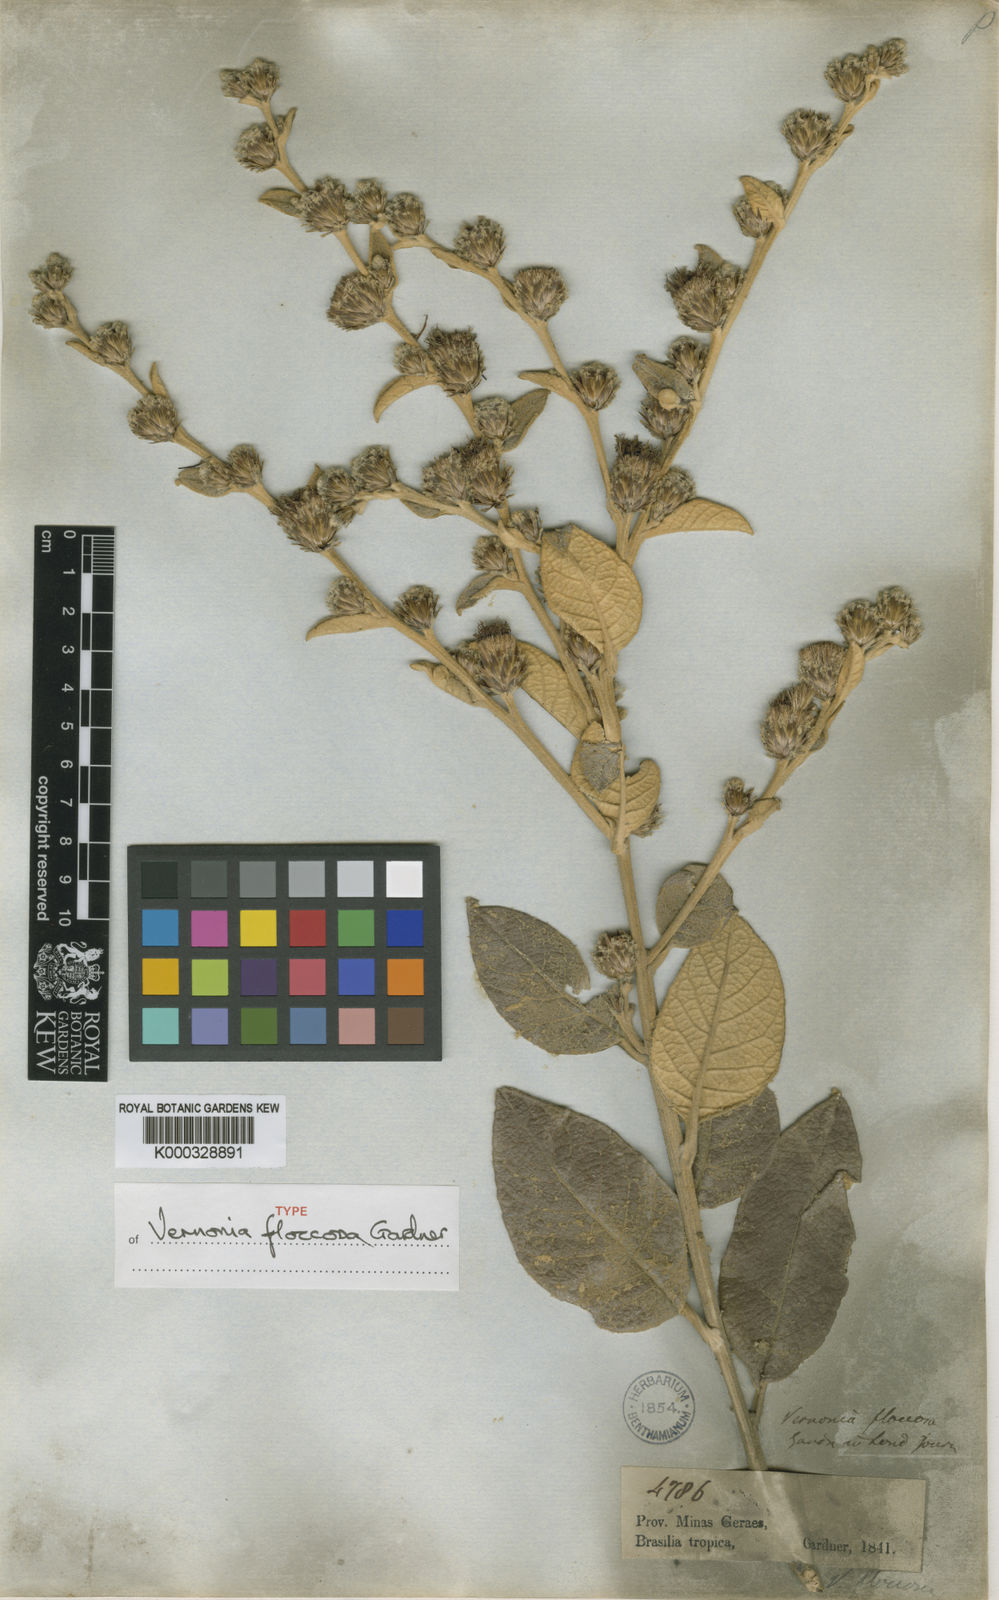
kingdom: Plantae
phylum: Tracheophyta
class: Magnoliopsida
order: Asterales
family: Asteraceae
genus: Lessingianthus
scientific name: Lessingianthus floccosus
